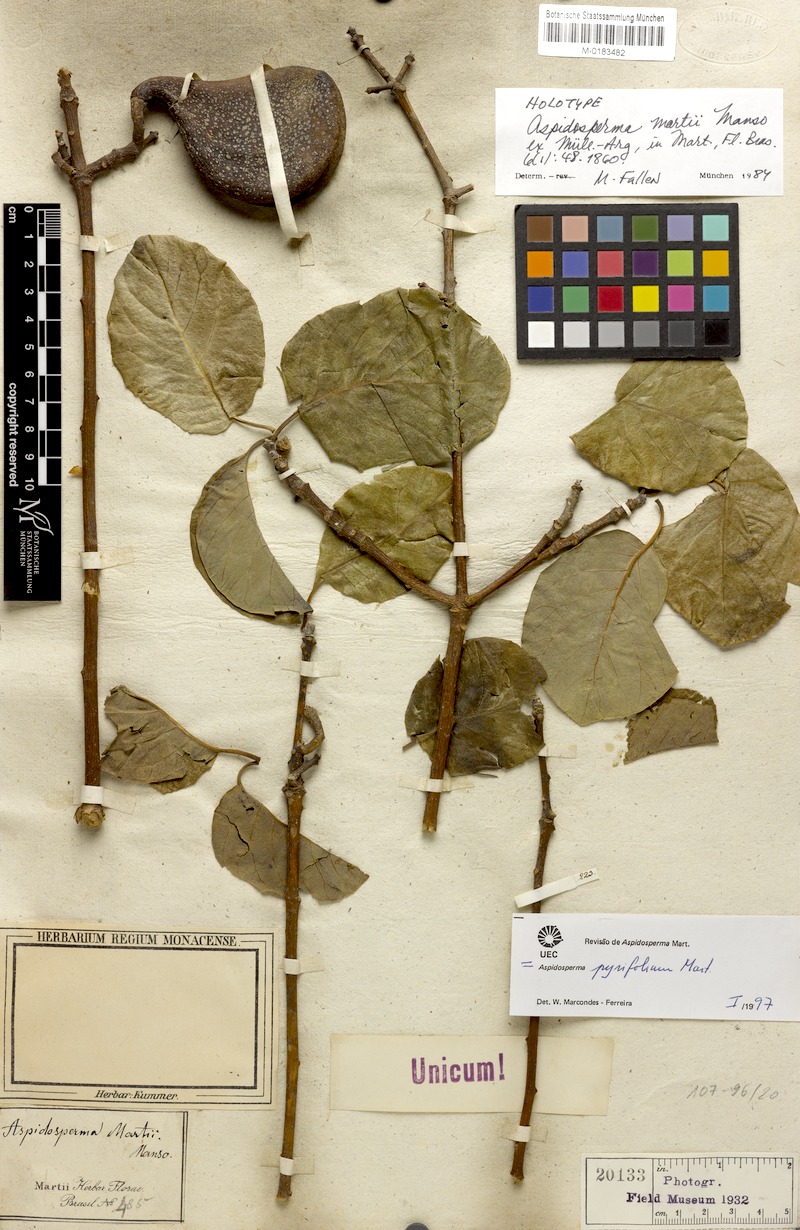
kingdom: Plantae
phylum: Tracheophyta
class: Magnoliopsida
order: Gentianales
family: Apocynaceae
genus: Aspidosperma
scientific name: Aspidosperma pyrifolium
